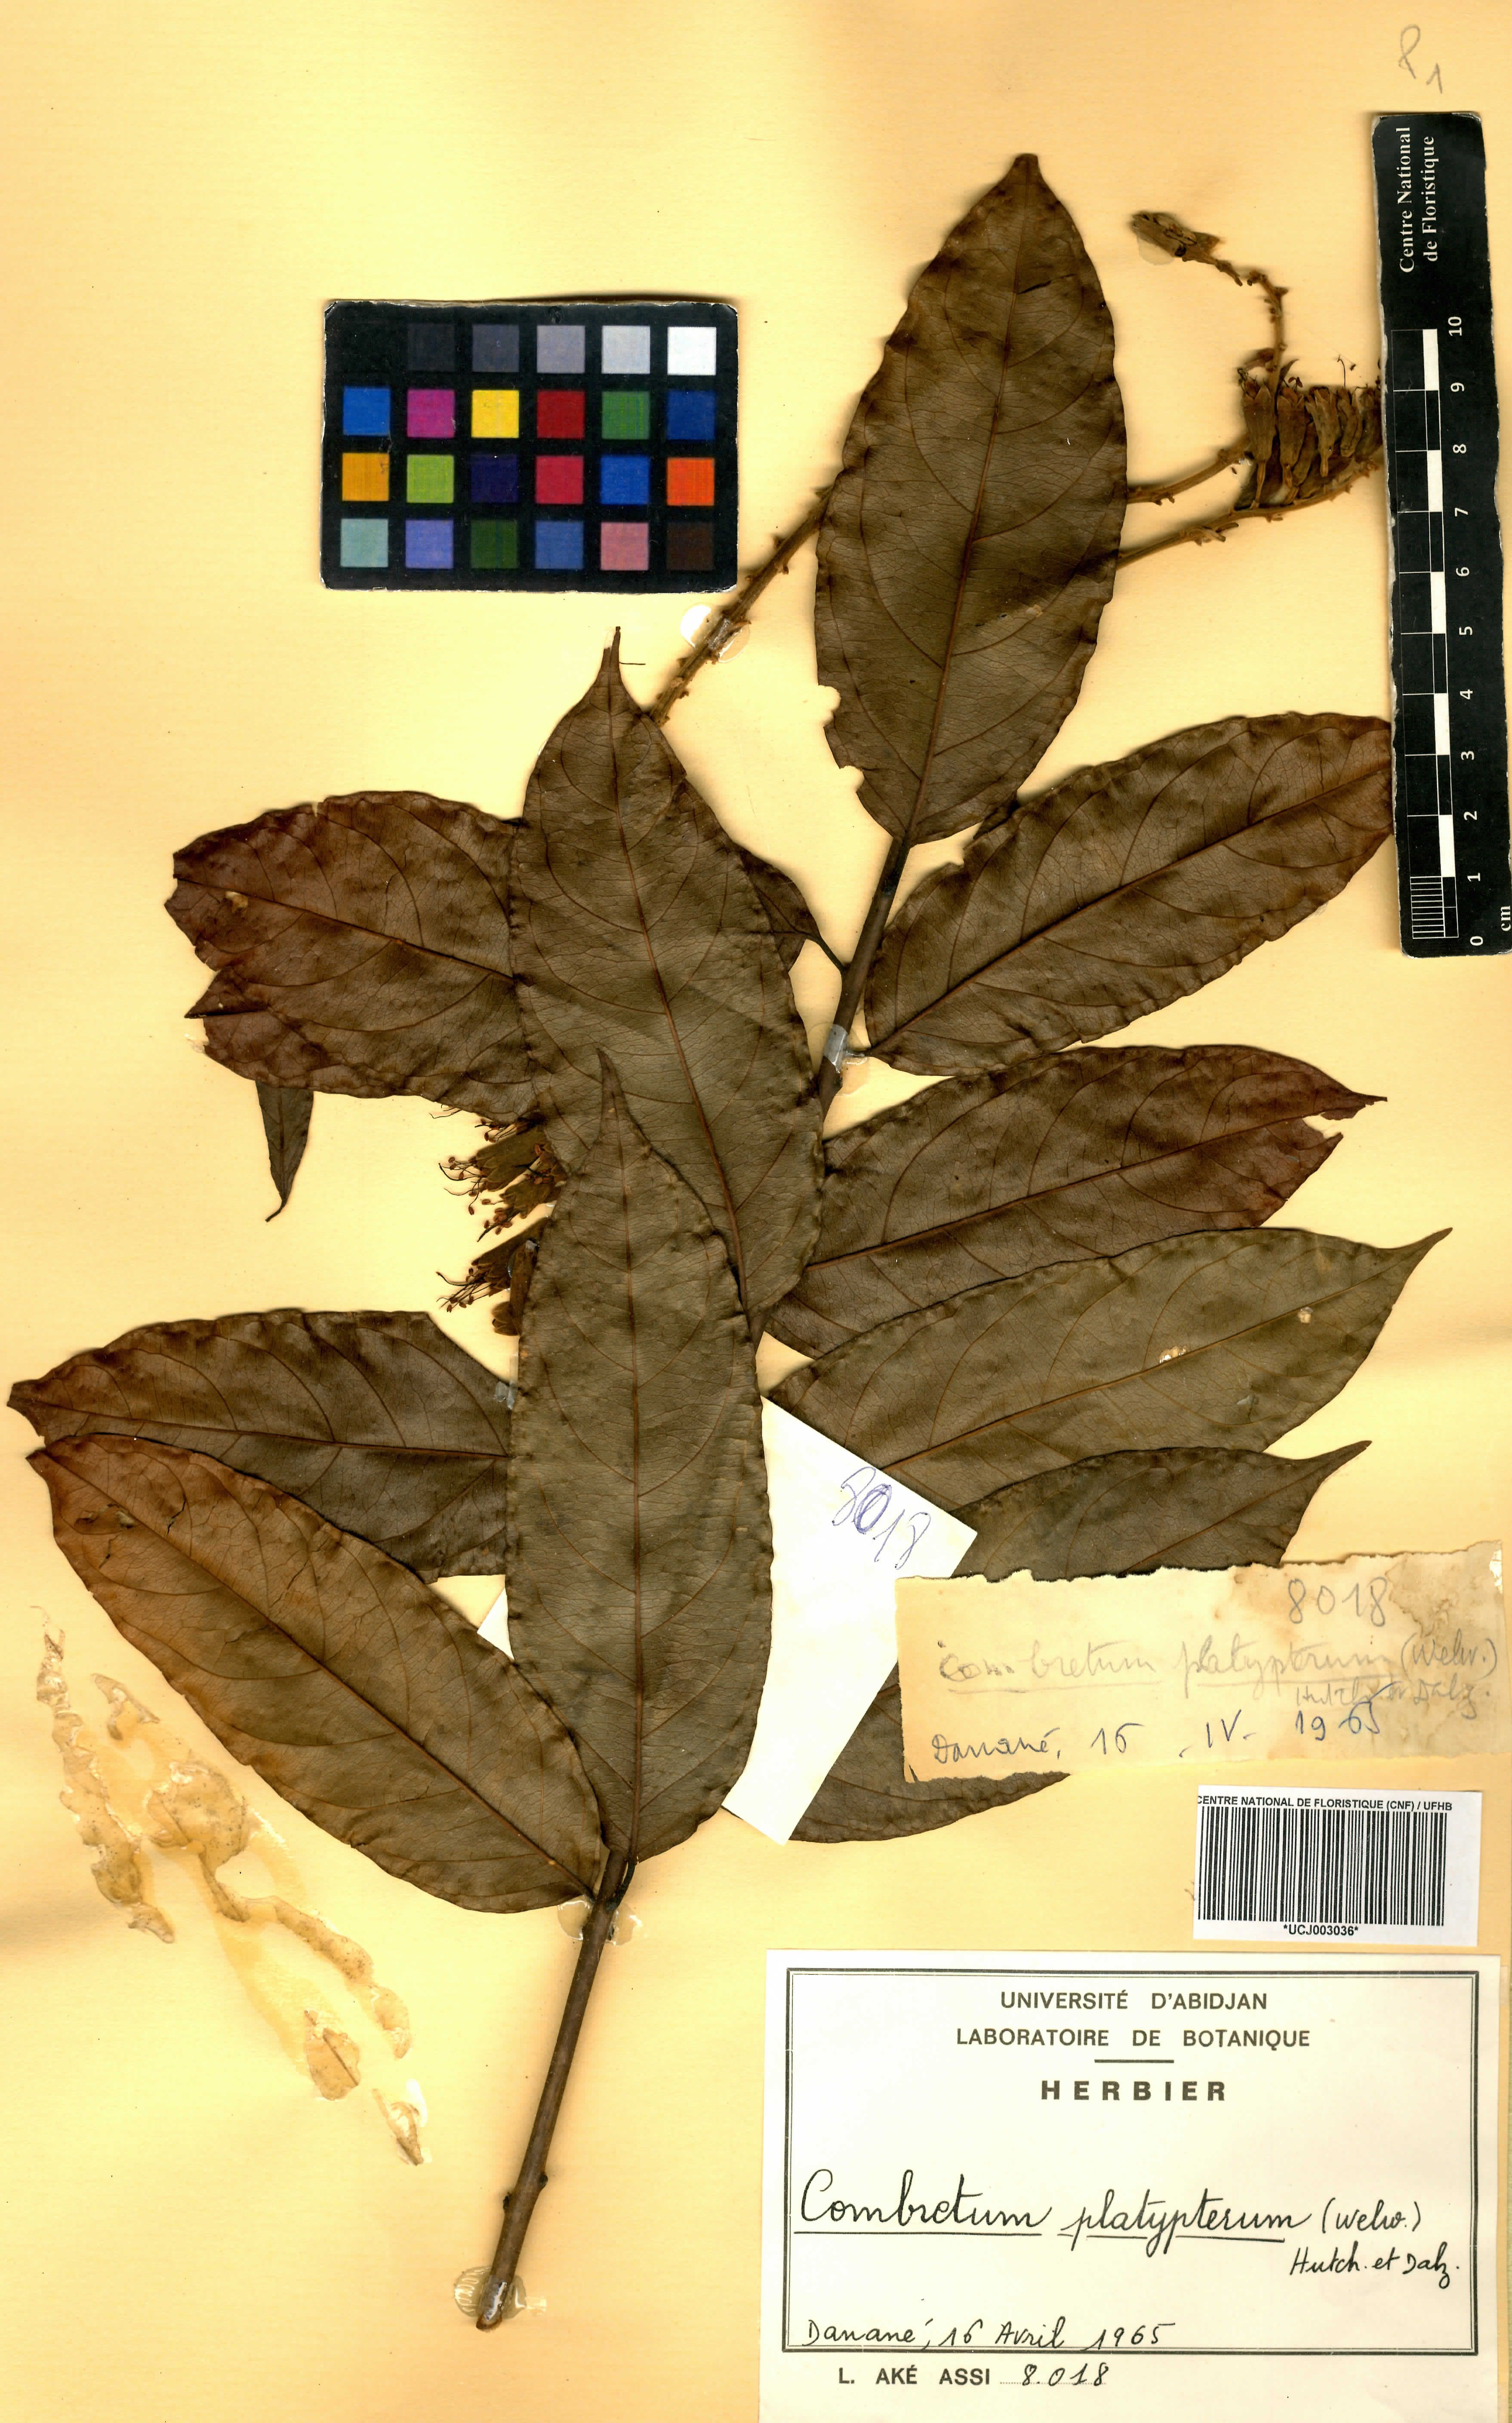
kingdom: Plantae
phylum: Tracheophyta
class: Magnoliopsida
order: Myrtales
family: Combretaceae
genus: Combretum
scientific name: Combretum platypterum
